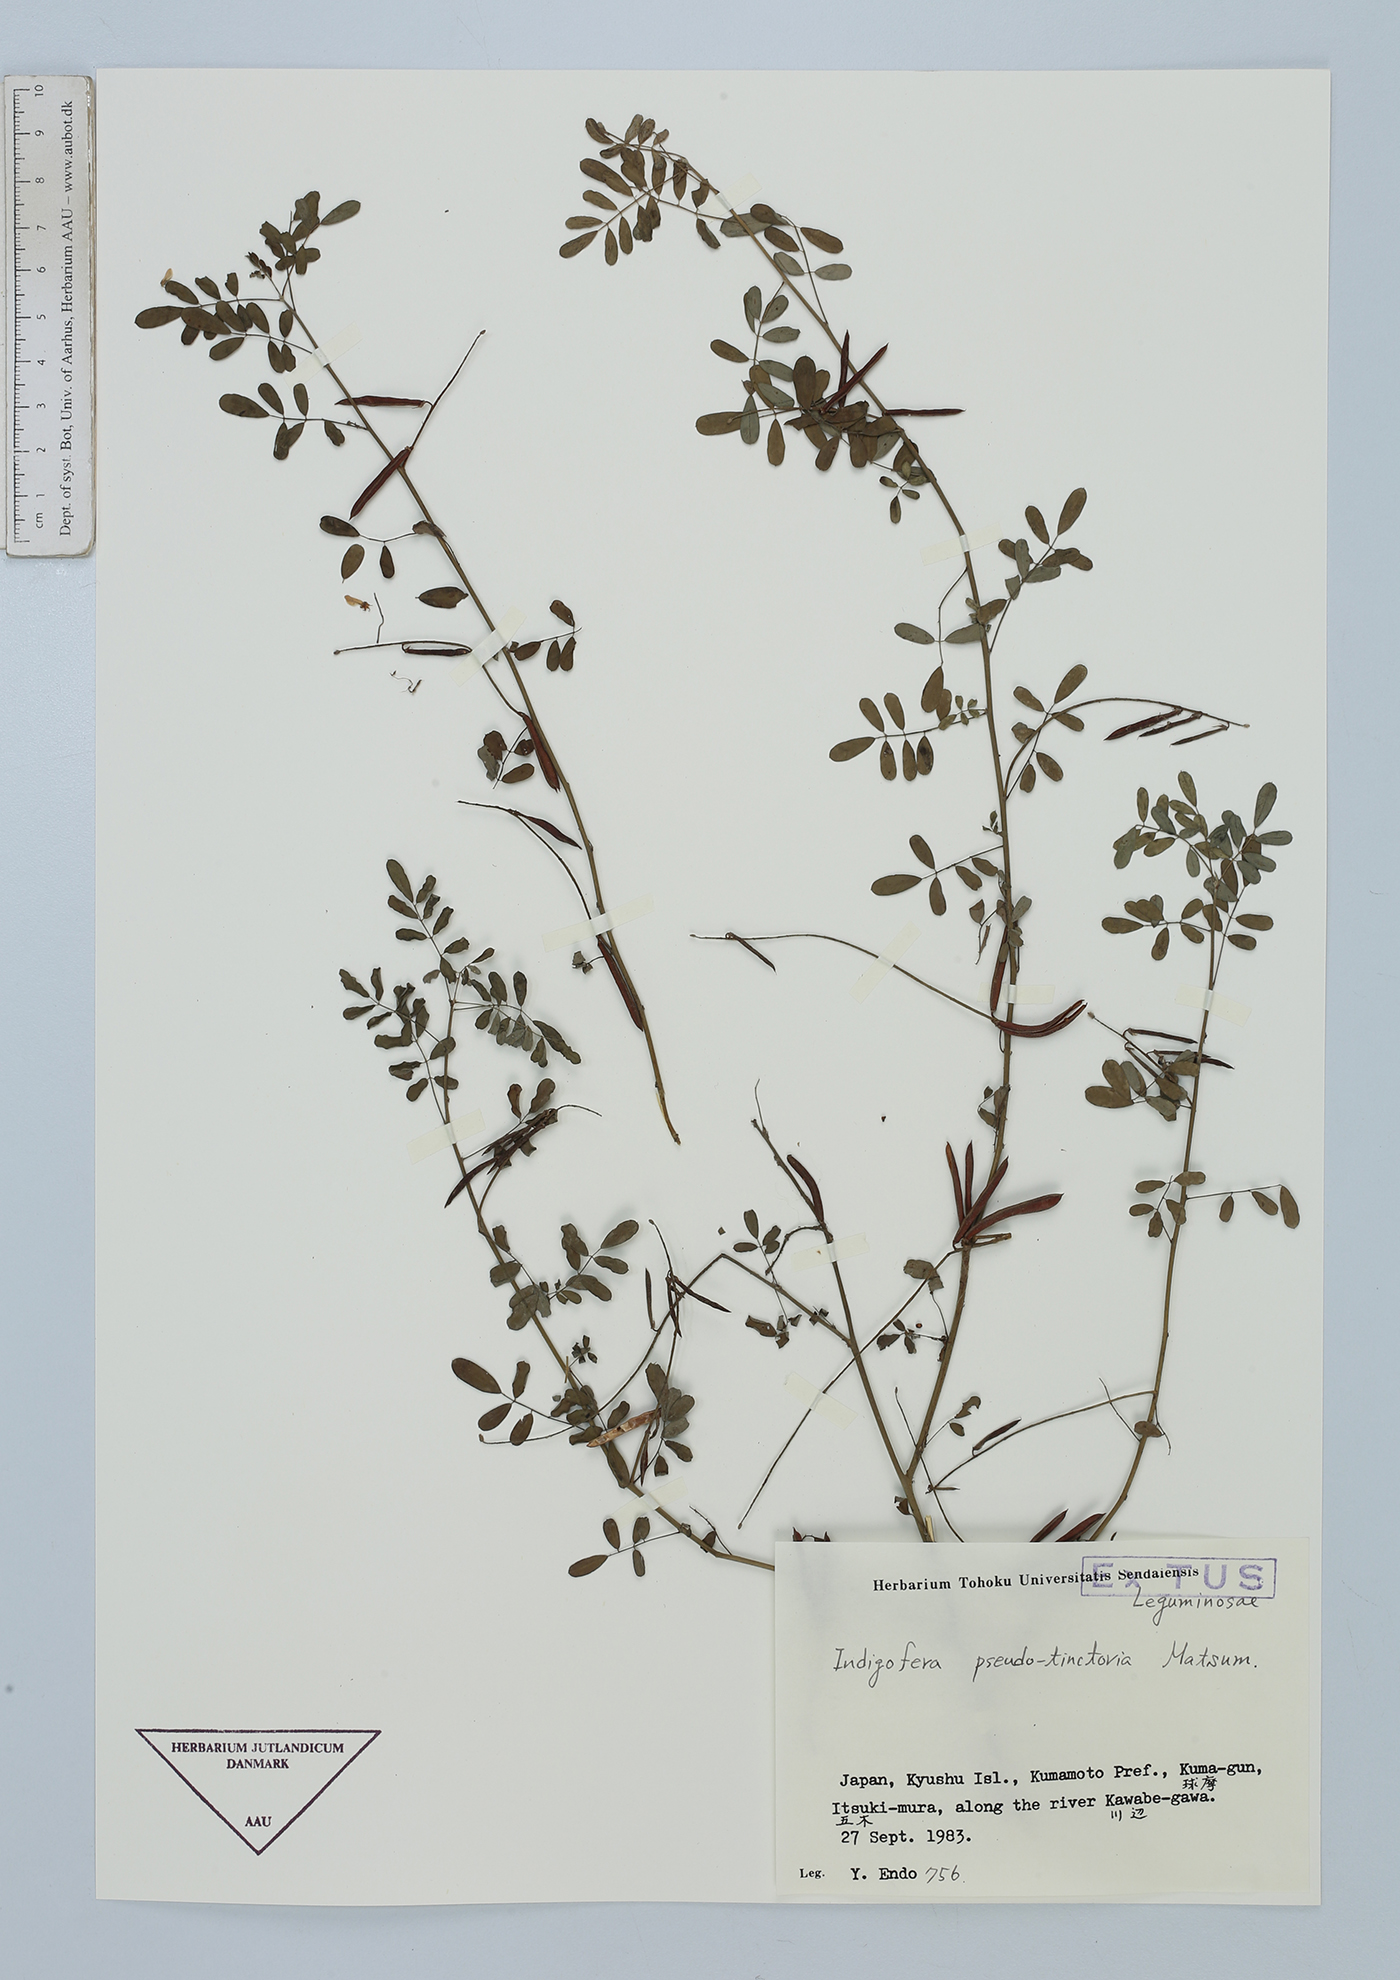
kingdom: Plantae
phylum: Tracheophyta
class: Magnoliopsida
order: Fabales
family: Fabaceae
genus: Indigofera
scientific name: Indigofera bungeana
